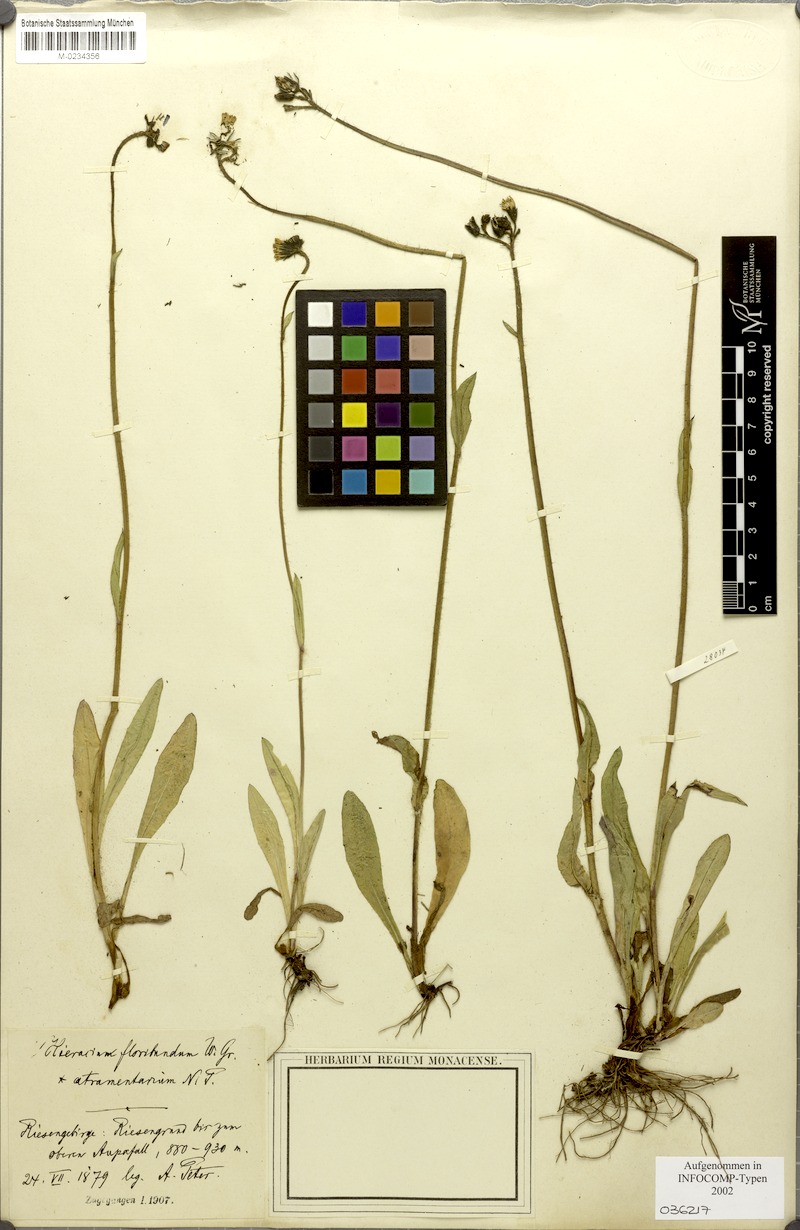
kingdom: Plantae
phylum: Tracheophyta
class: Magnoliopsida
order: Asterales
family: Asteraceae
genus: Pilosella
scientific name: Pilosella floribunda
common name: Glaucous hawkweed
